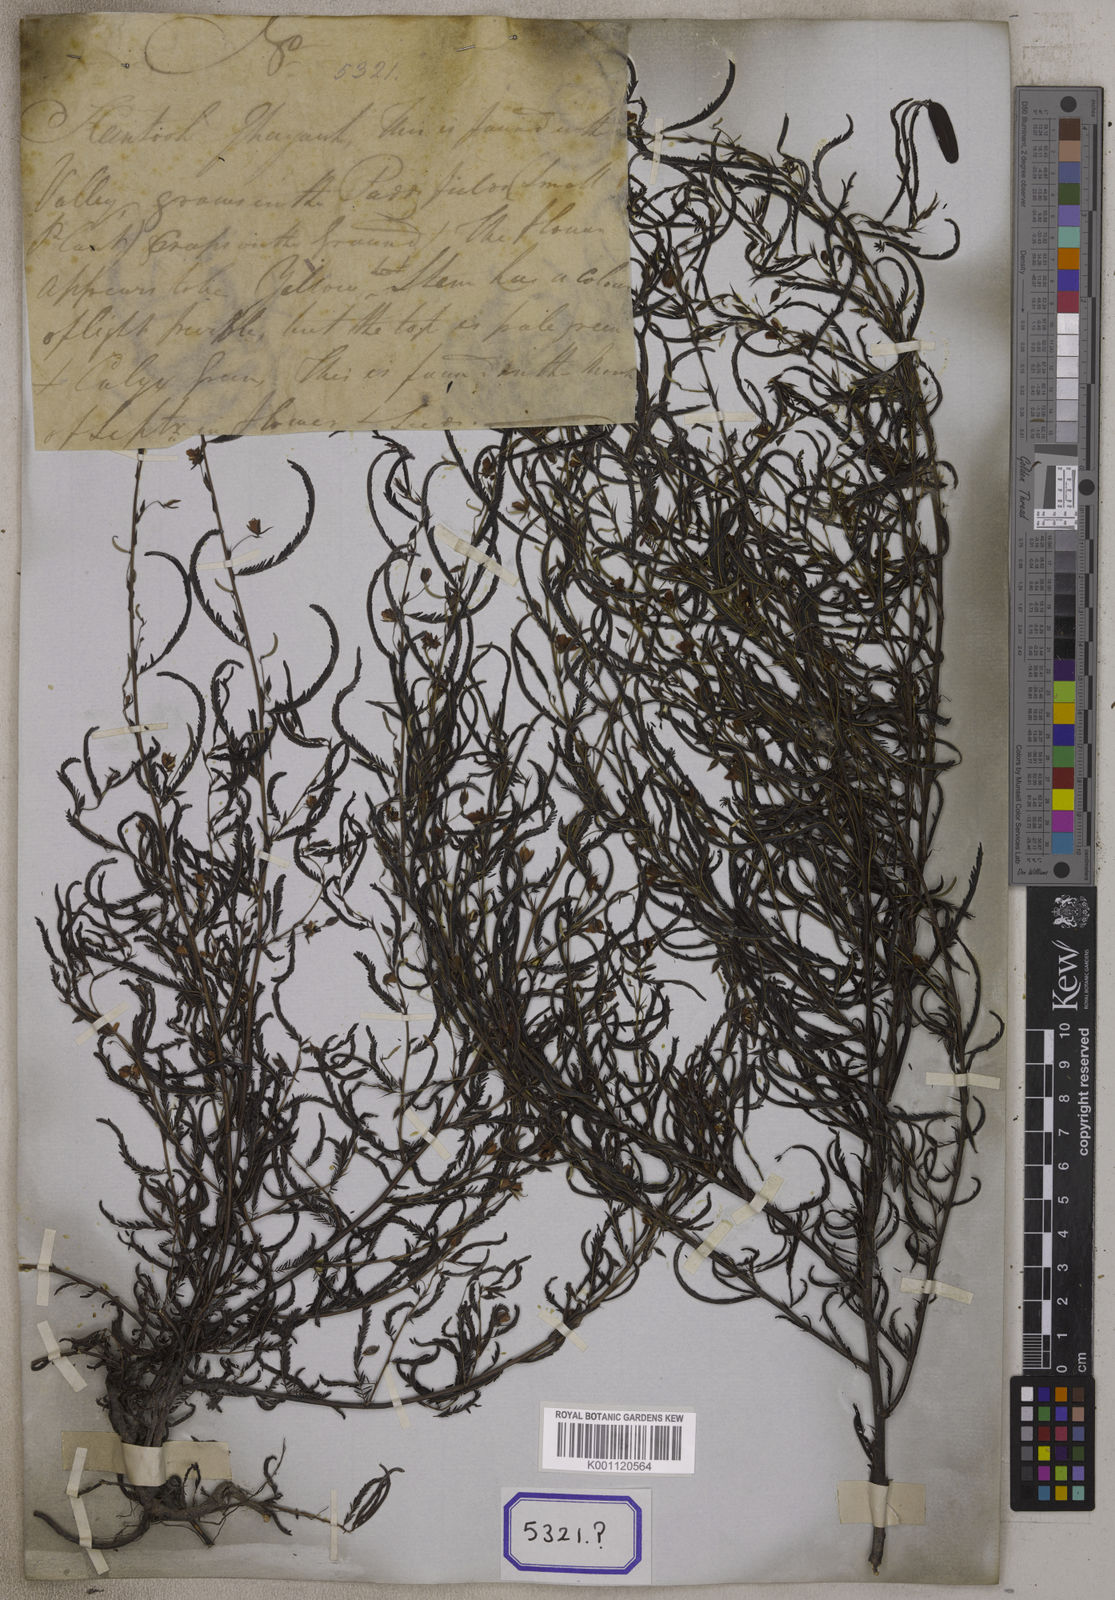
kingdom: Plantae
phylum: Tracheophyta
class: Magnoliopsida
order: Fabales
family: Fabaceae
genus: Chamaecrista
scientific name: Chamaecrista mimosoides
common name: Fish-bone cassia
